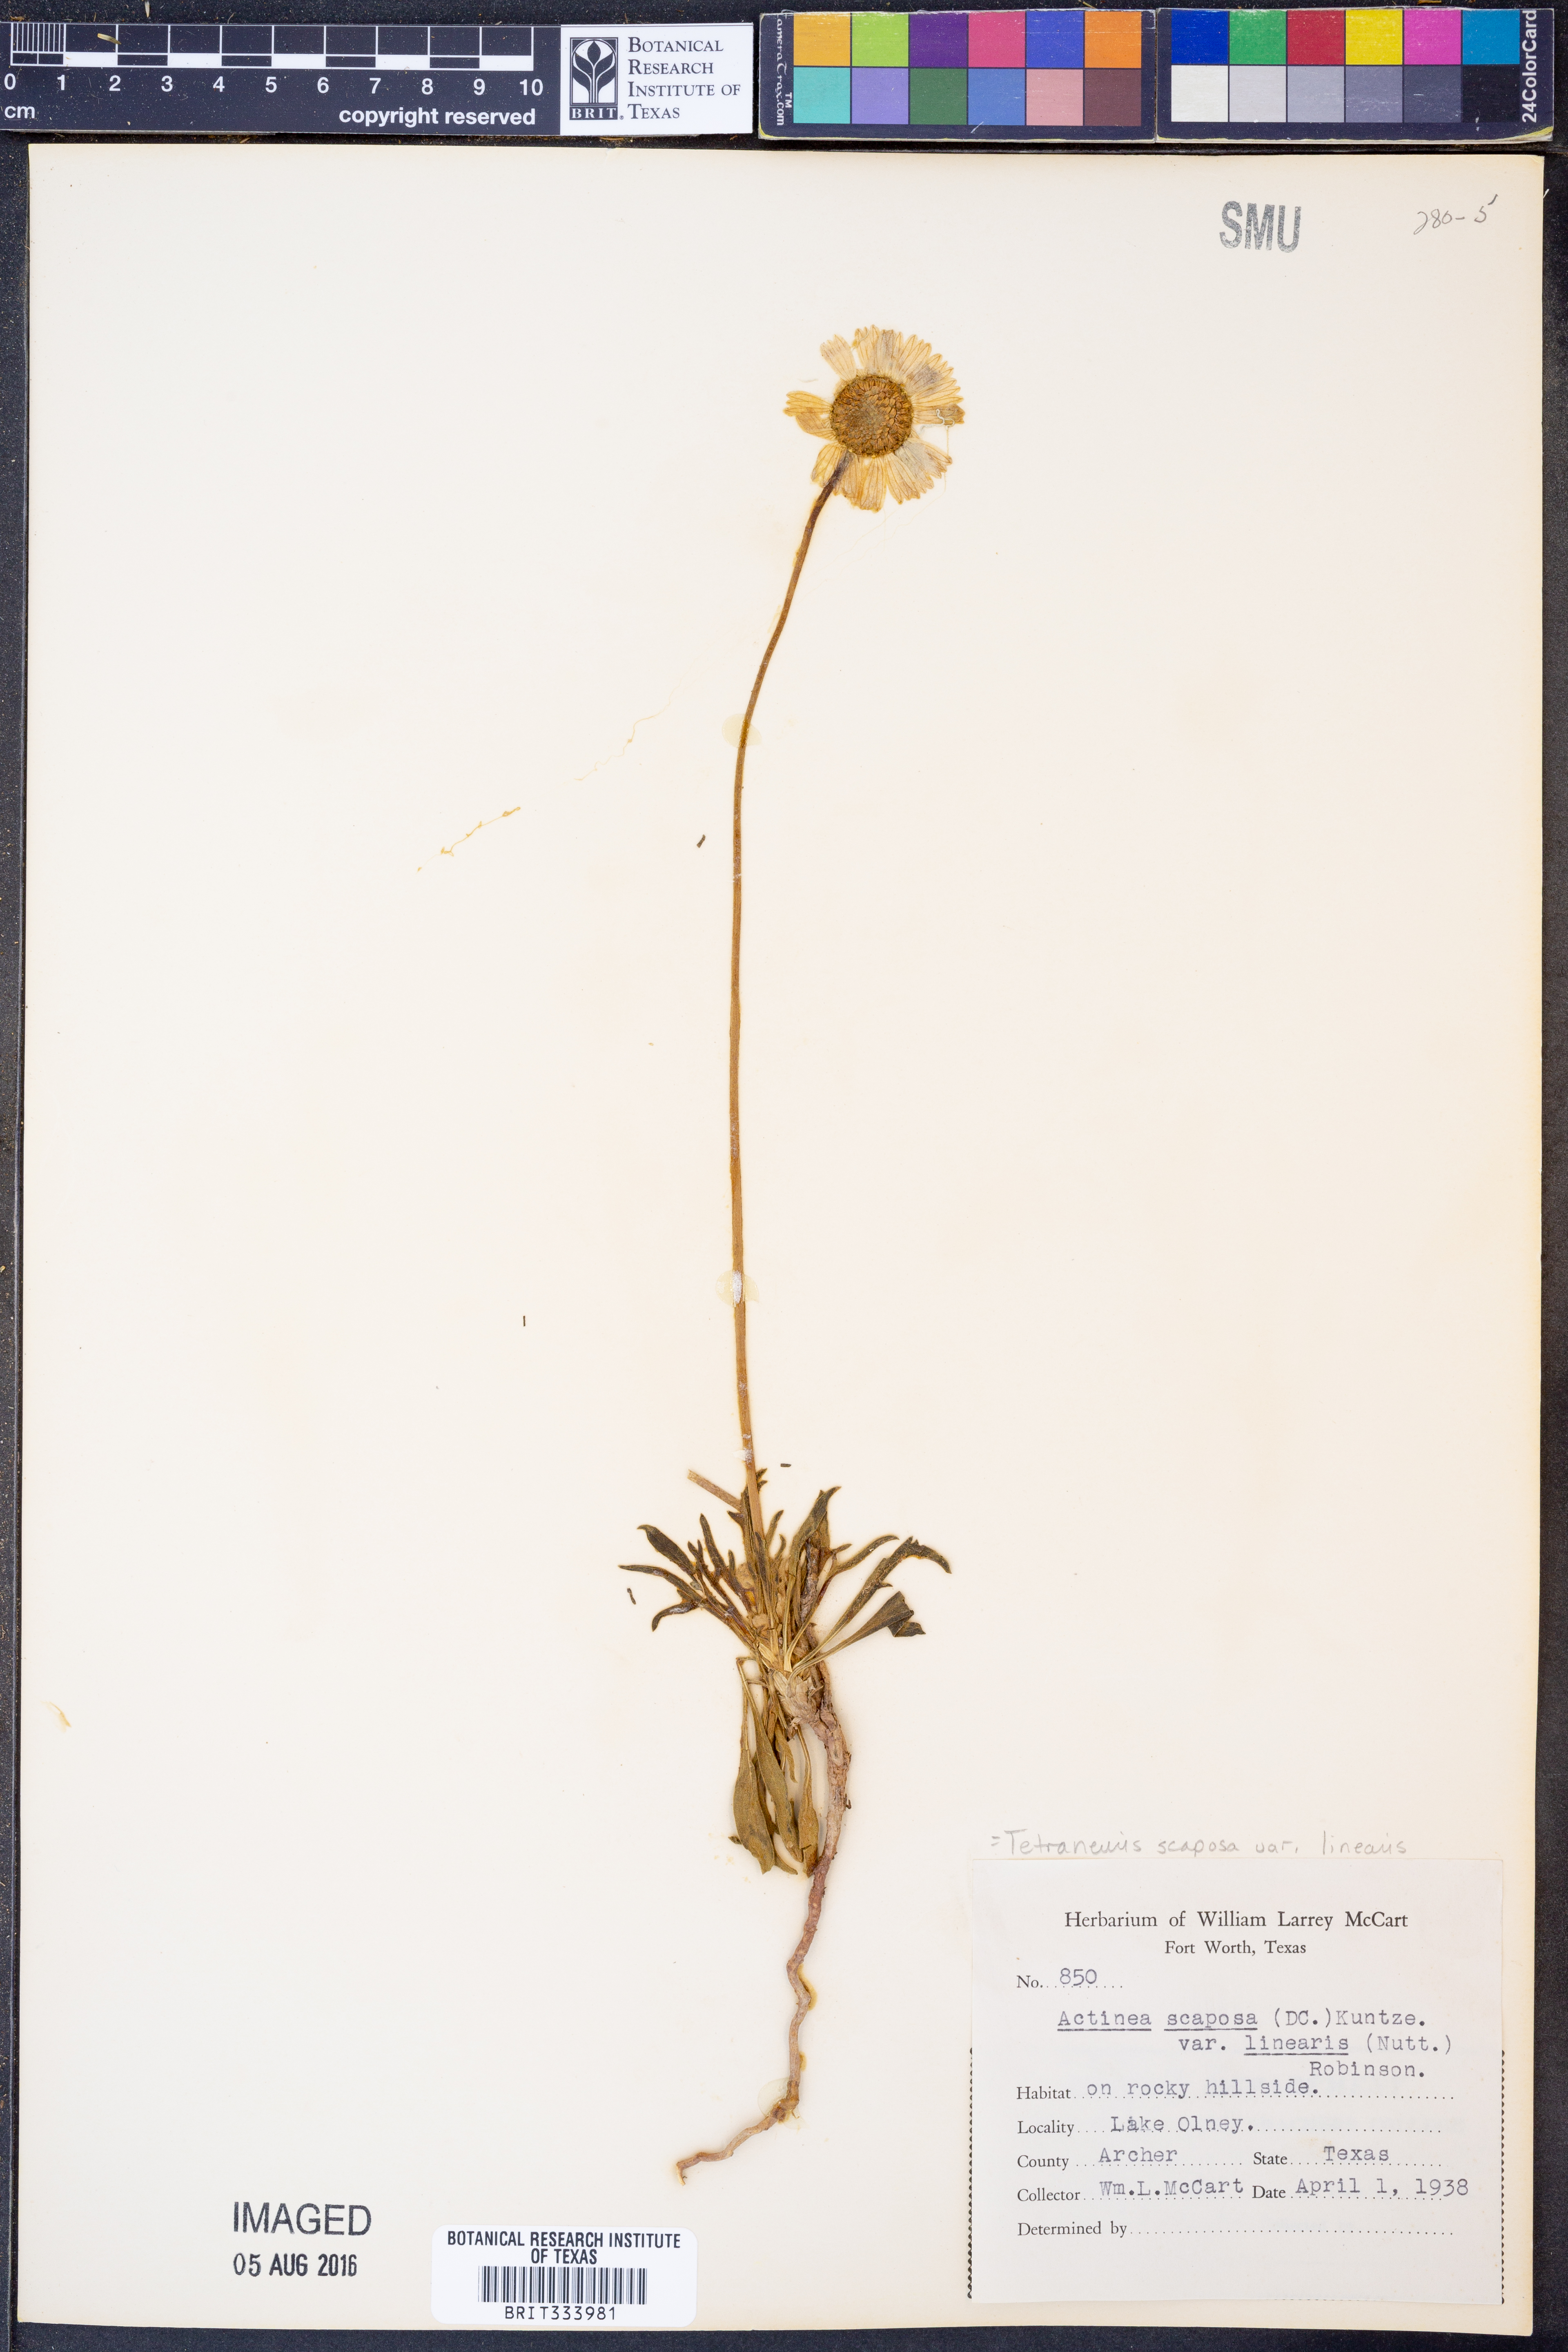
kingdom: Plantae
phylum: Tracheophyta
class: Magnoliopsida
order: Asterales
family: Asteraceae
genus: Tetraneuris
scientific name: Tetraneuris scaposa
